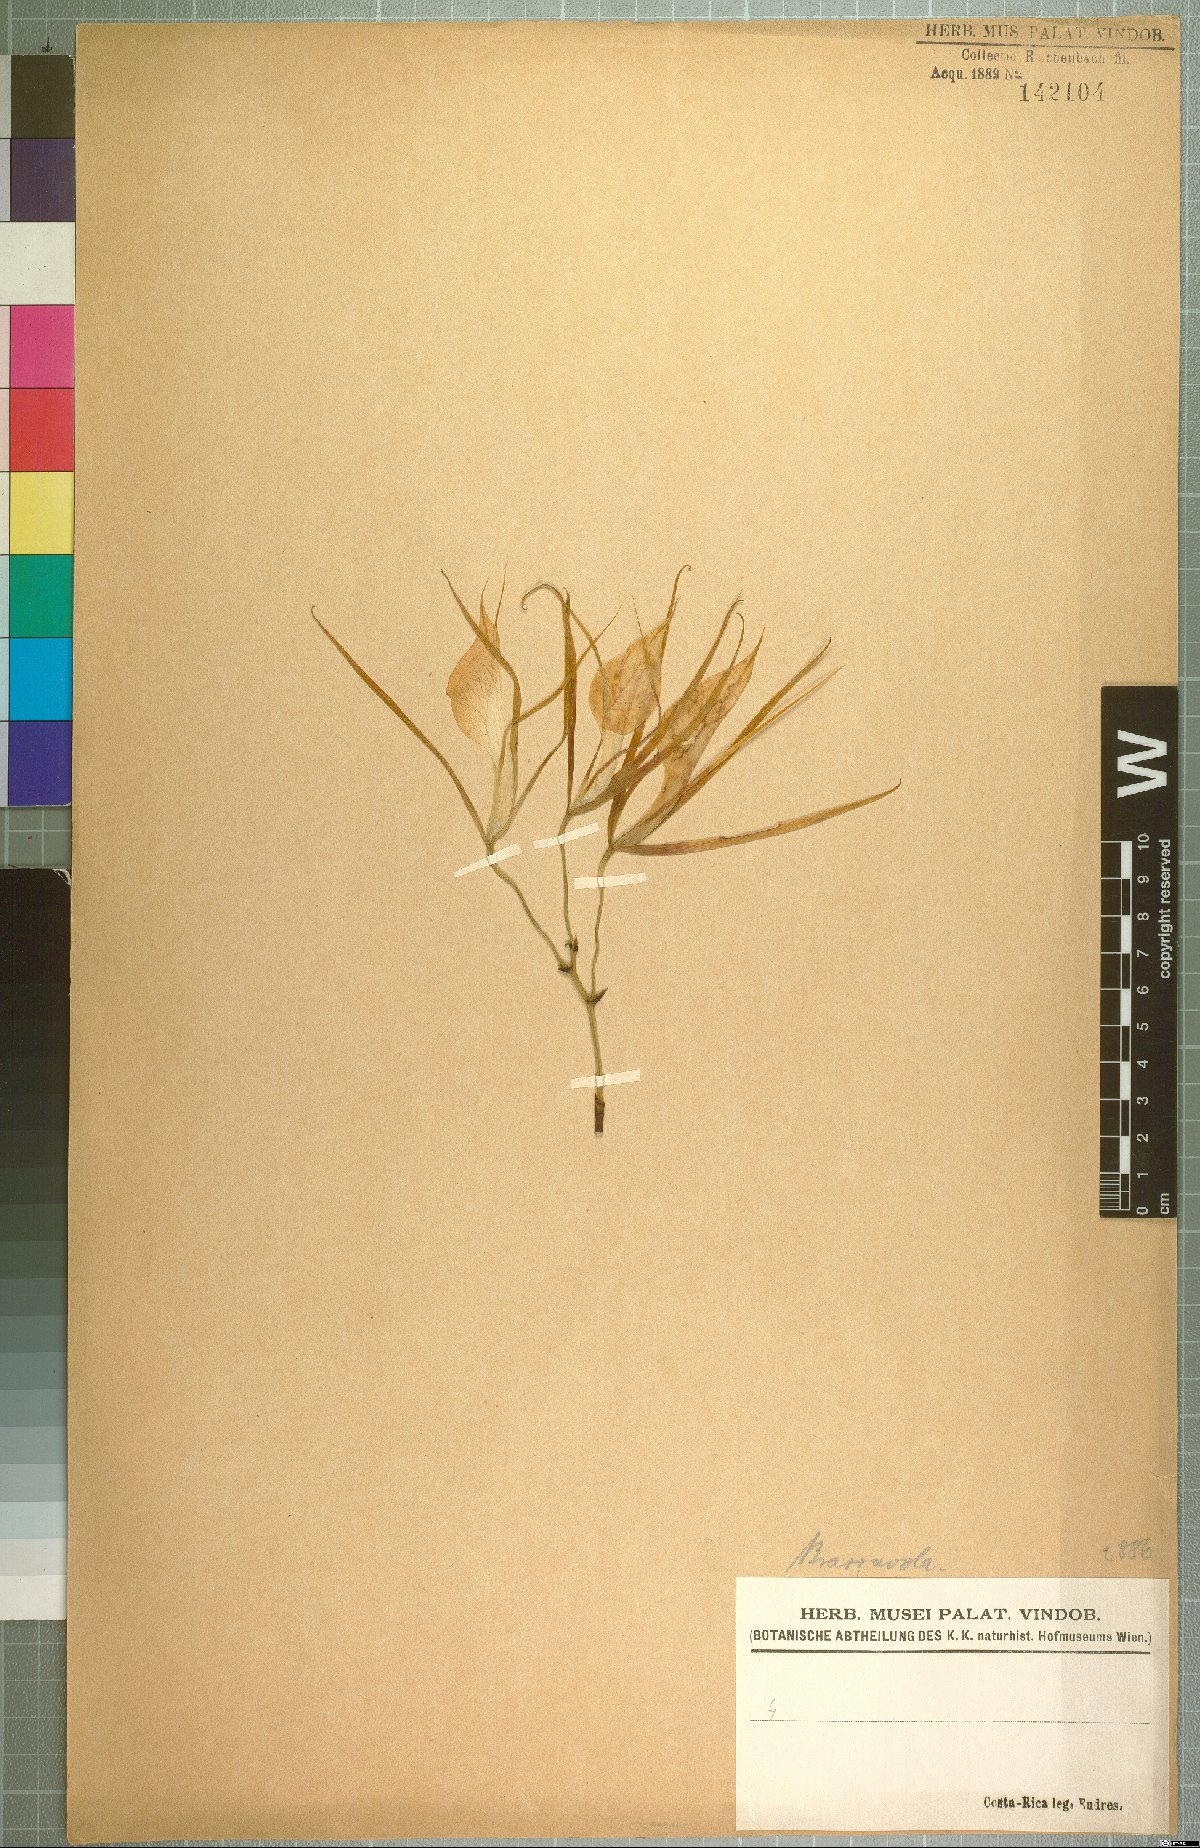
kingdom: Plantae
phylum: Tracheophyta
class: Liliopsida
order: Asparagales
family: Orchidaceae
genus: Brassavola
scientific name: Brassavola nodosa
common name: Lady of the night
